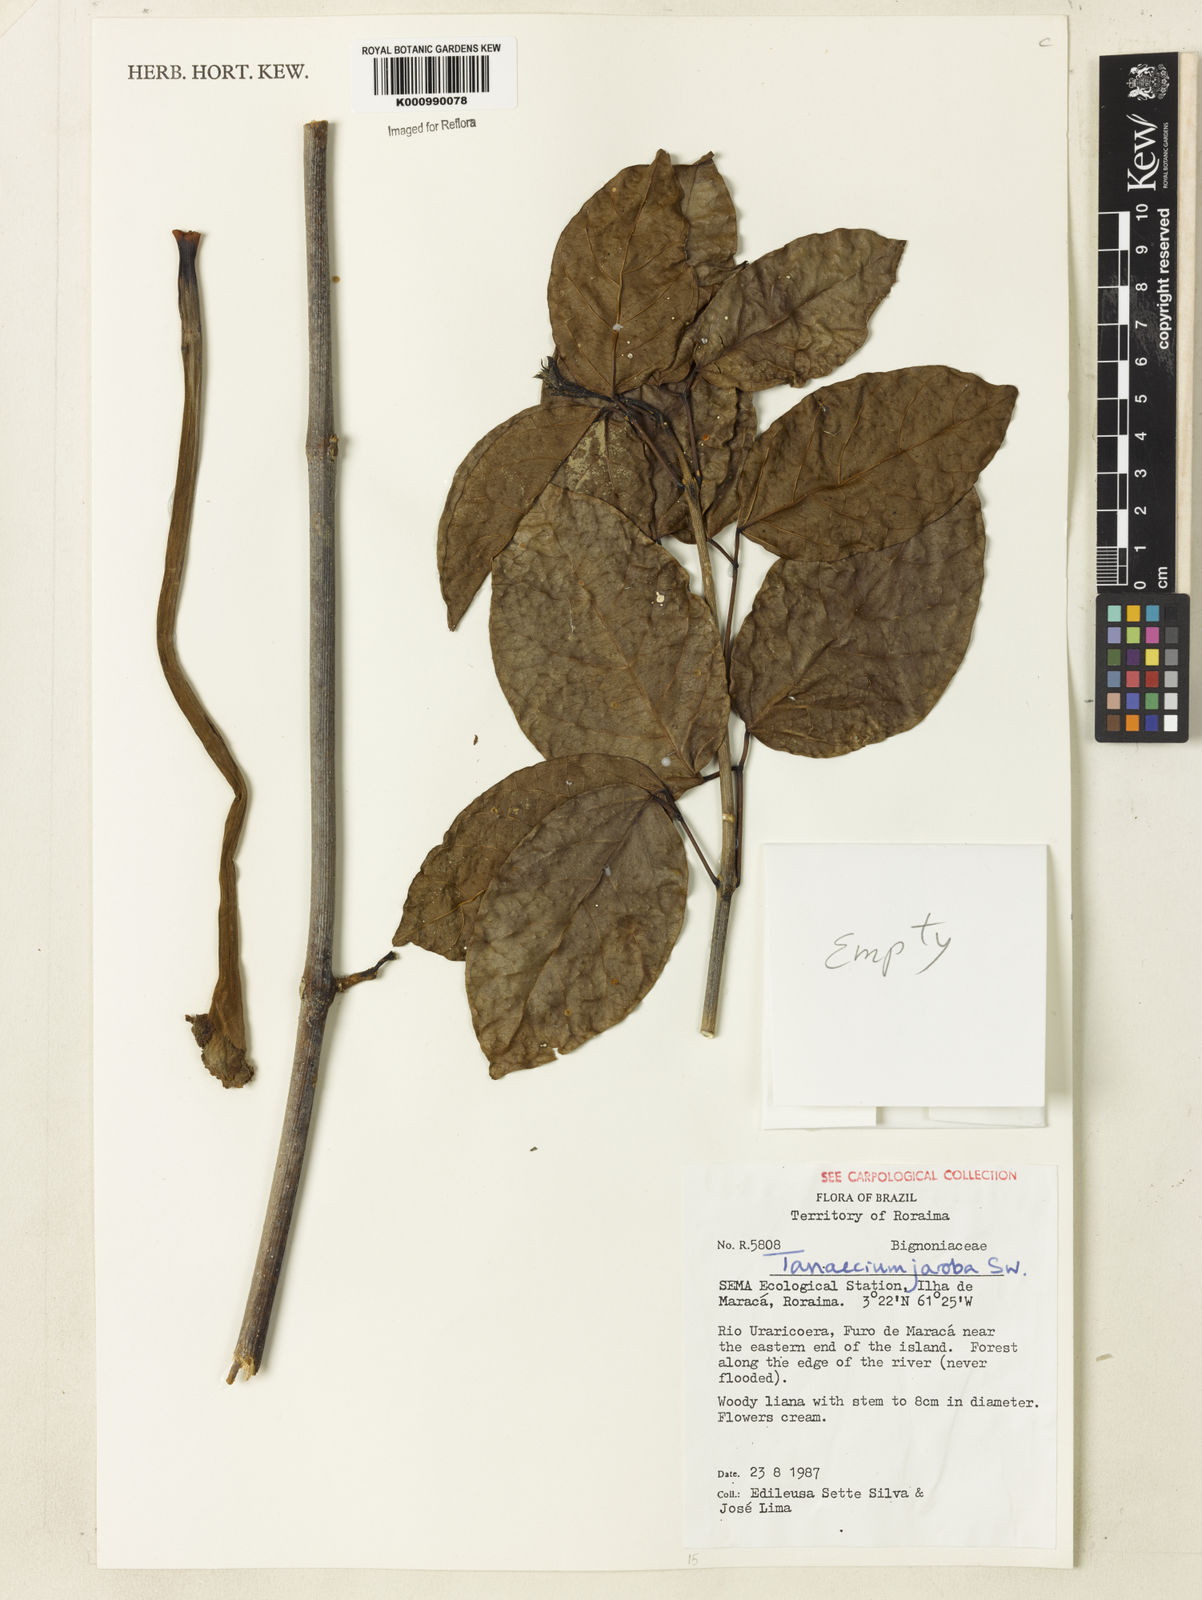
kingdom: Plantae
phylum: Tracheophyta
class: Magnoliopsida
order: Lamiales
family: Bignoniaceae
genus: Tanaecium
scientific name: Tanaecium jaroba
